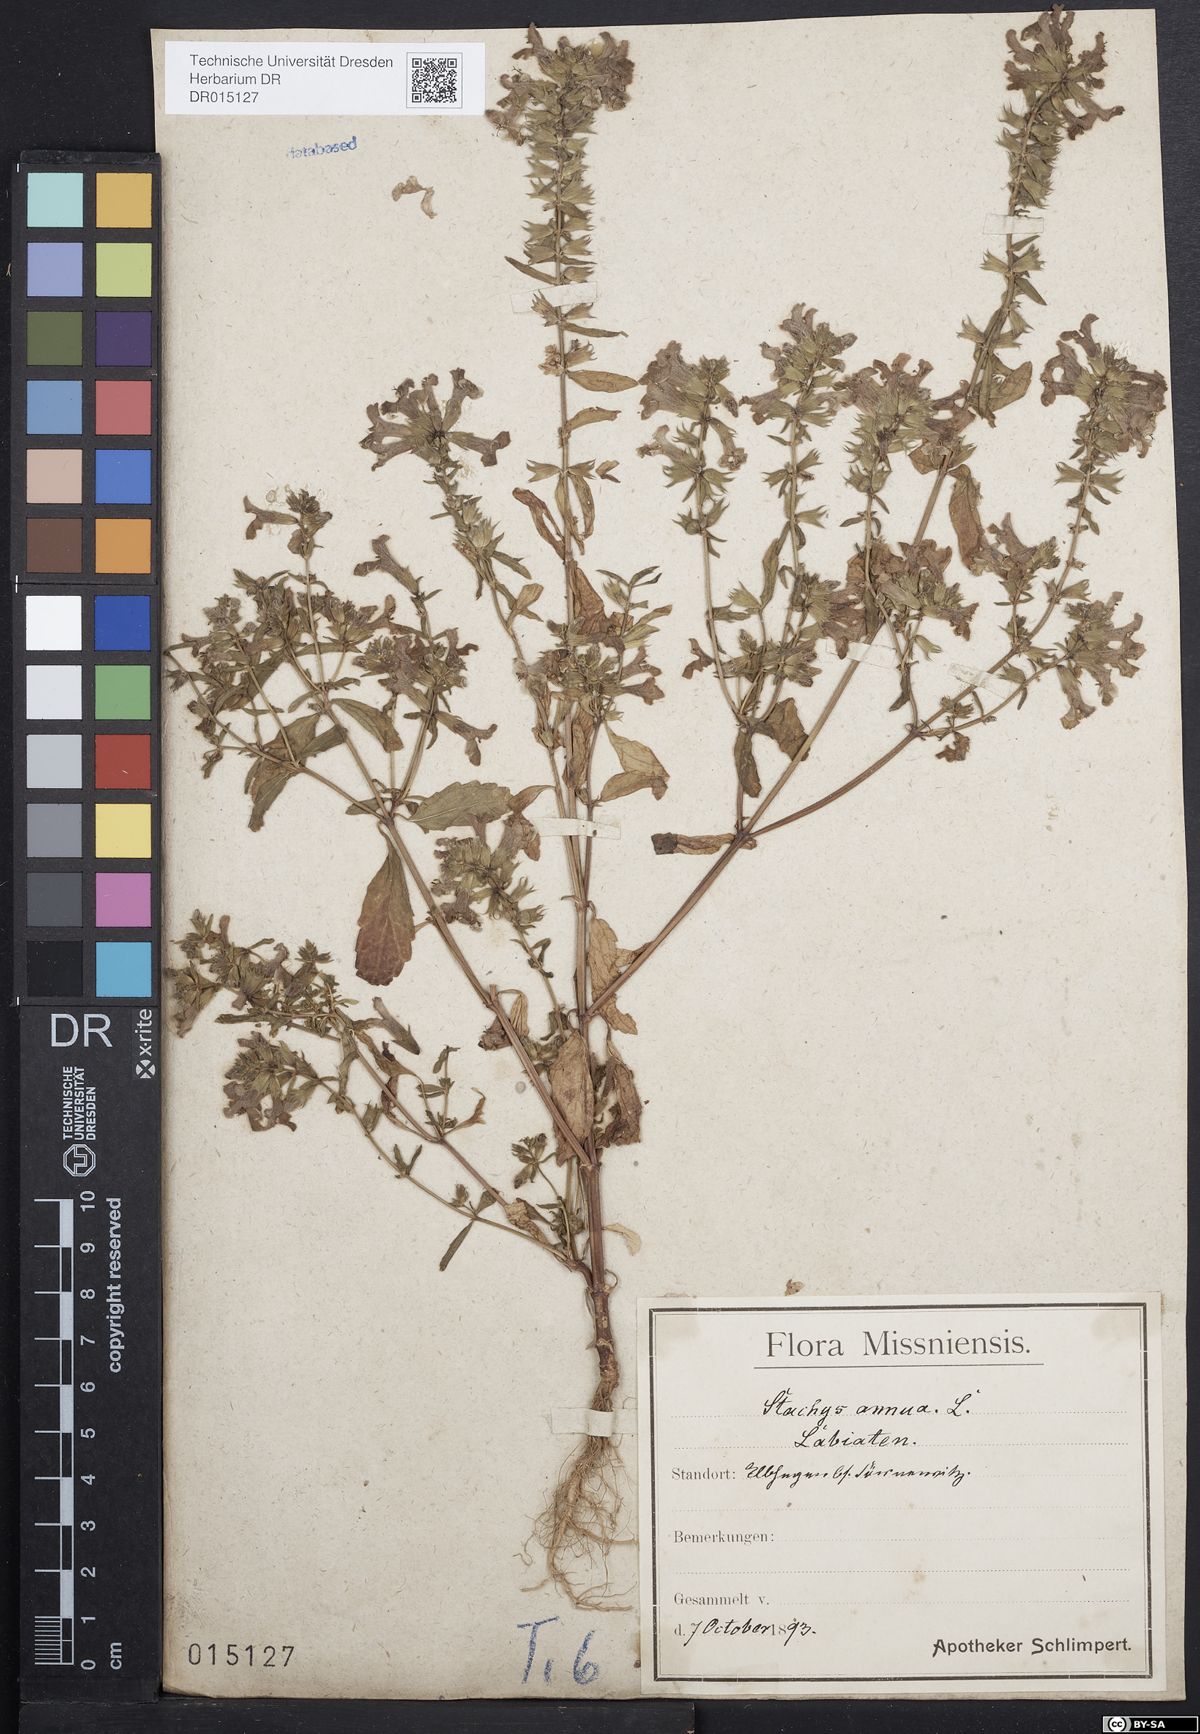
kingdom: Plantae
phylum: Tracheophyta
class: Magnoliopsida
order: Lamiales
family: Lamiaceae
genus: Stachys
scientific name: Stachys annua
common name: Annual yellow-woundwort
